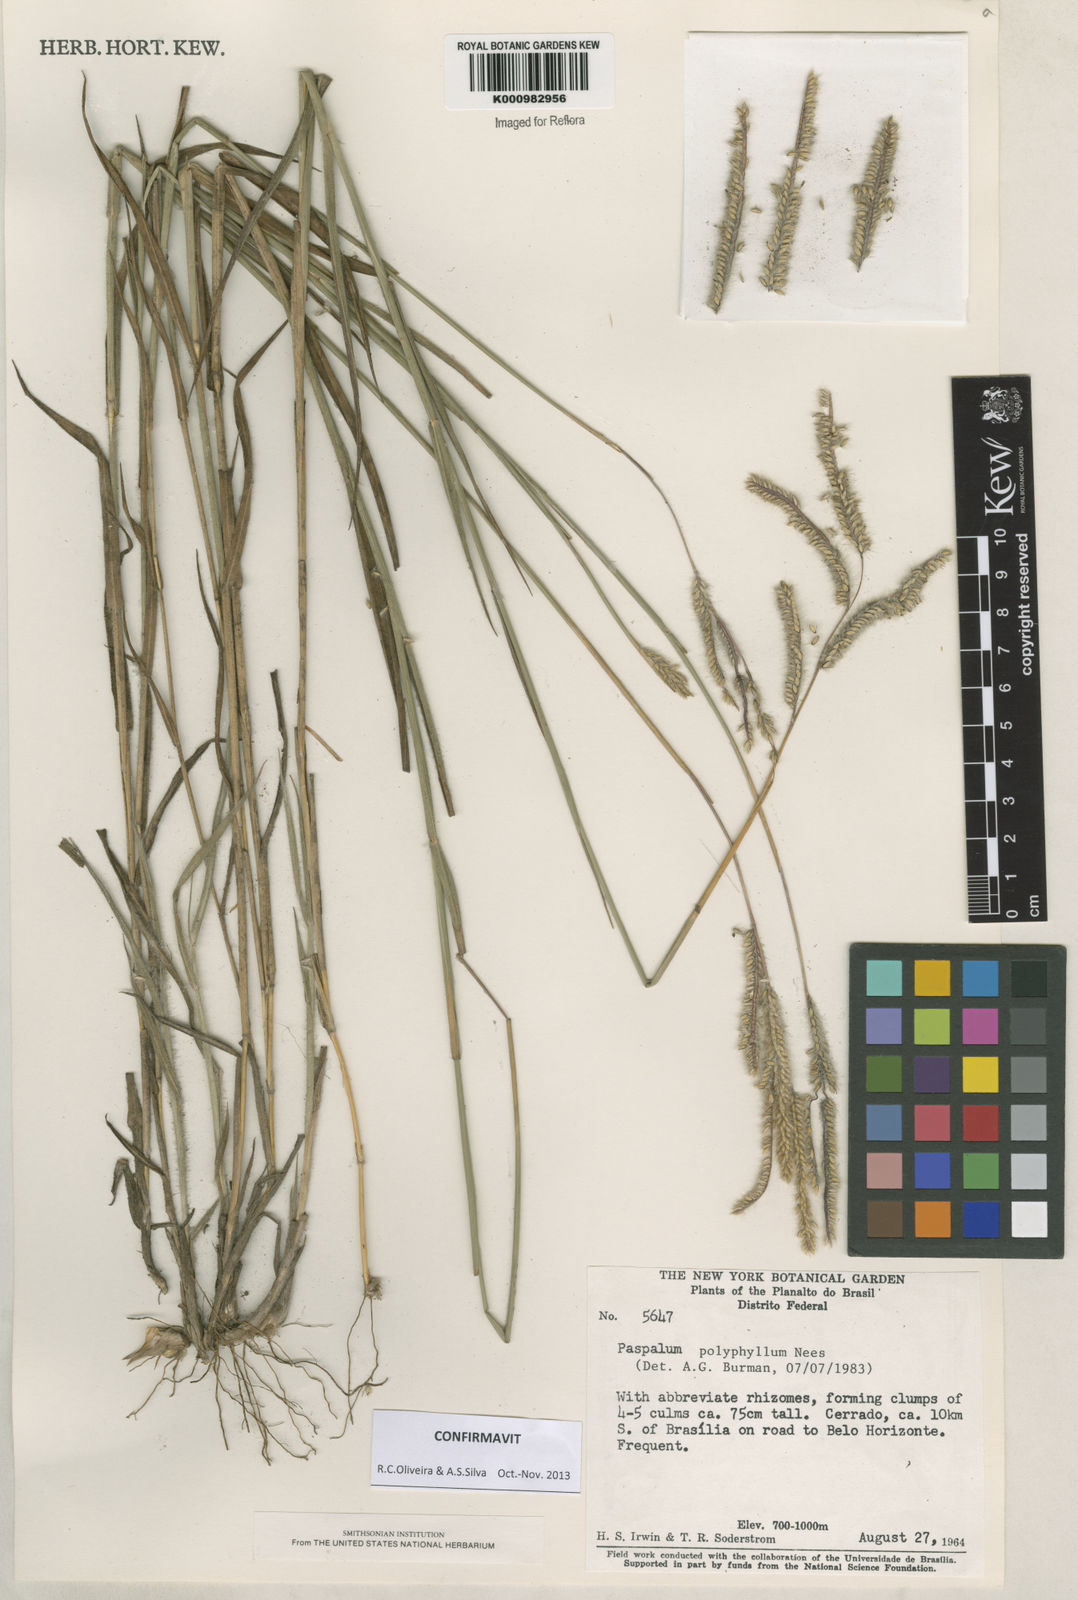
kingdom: Plantae
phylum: Tracheophyta
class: Liliopsida
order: Poales
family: Poaceae
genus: Paspalum
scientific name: Paspalum
